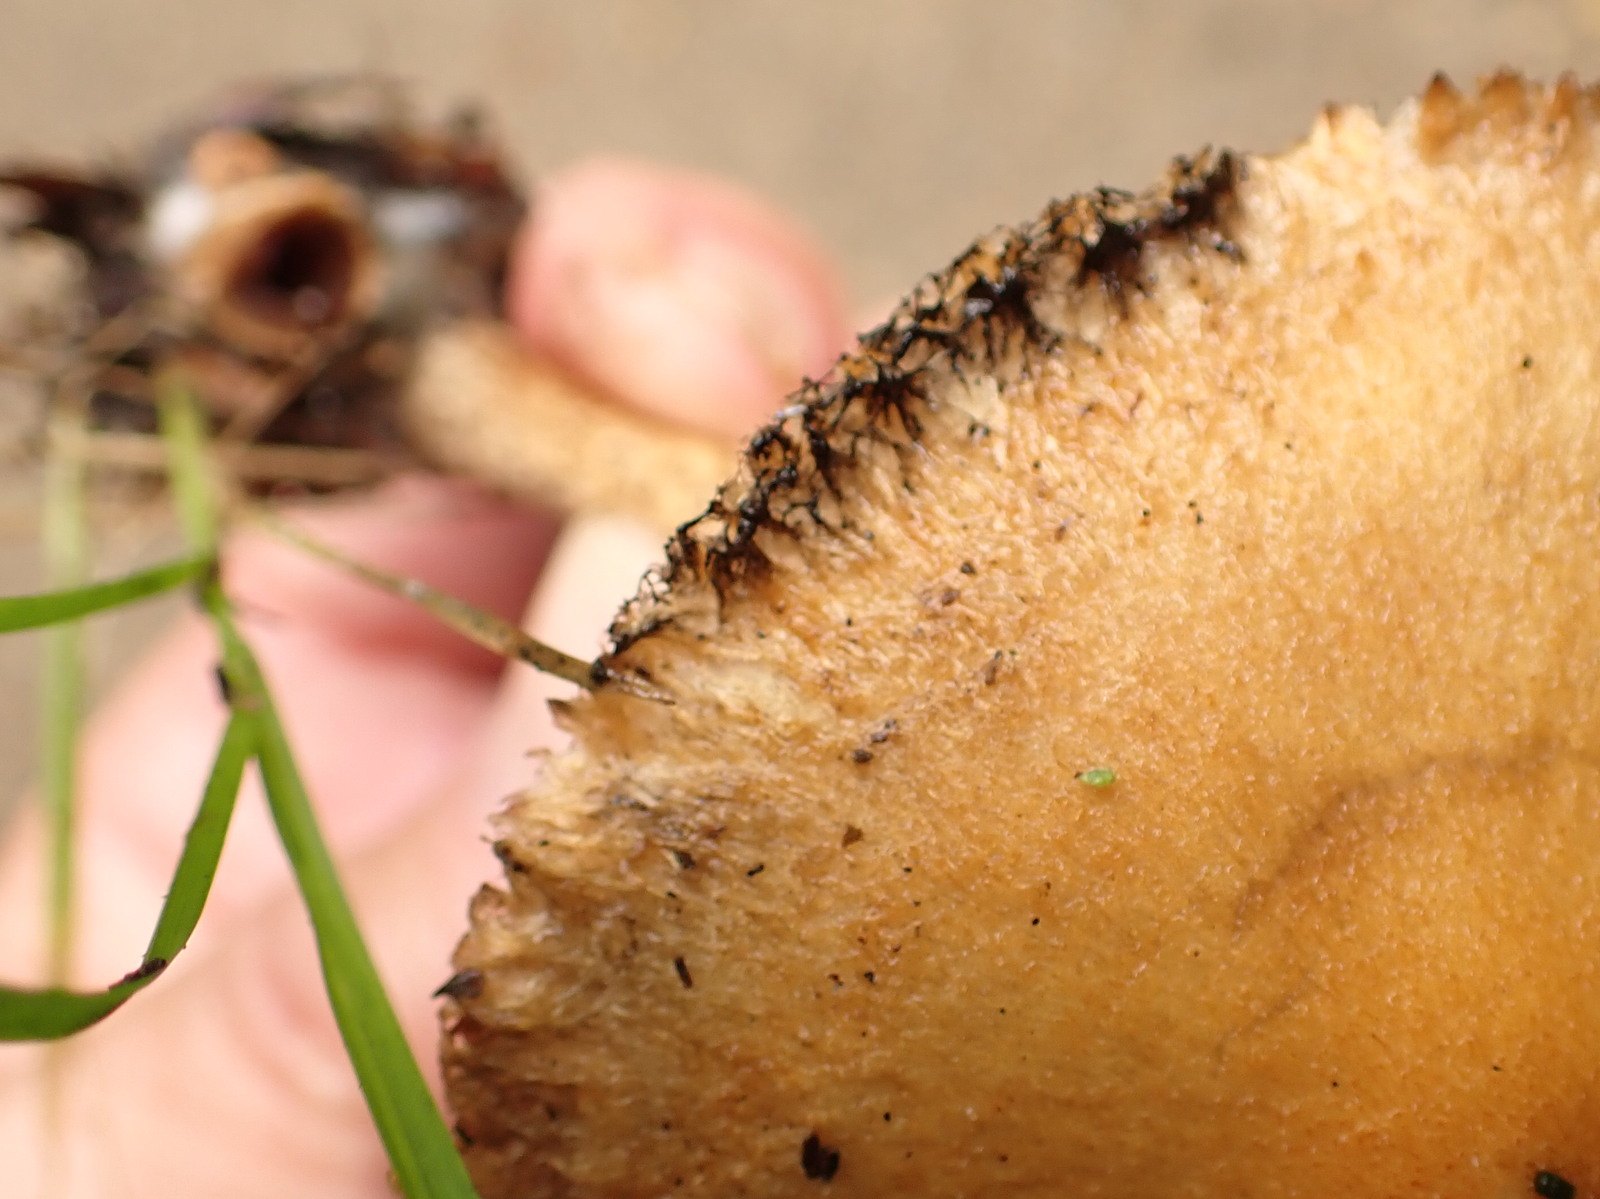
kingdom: Fungi
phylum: Basidiomycota
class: Agaricomycetes
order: Agaricales
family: Psathyrellaceae
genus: Lacrymaria
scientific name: Lacrymaria
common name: mørkhat
